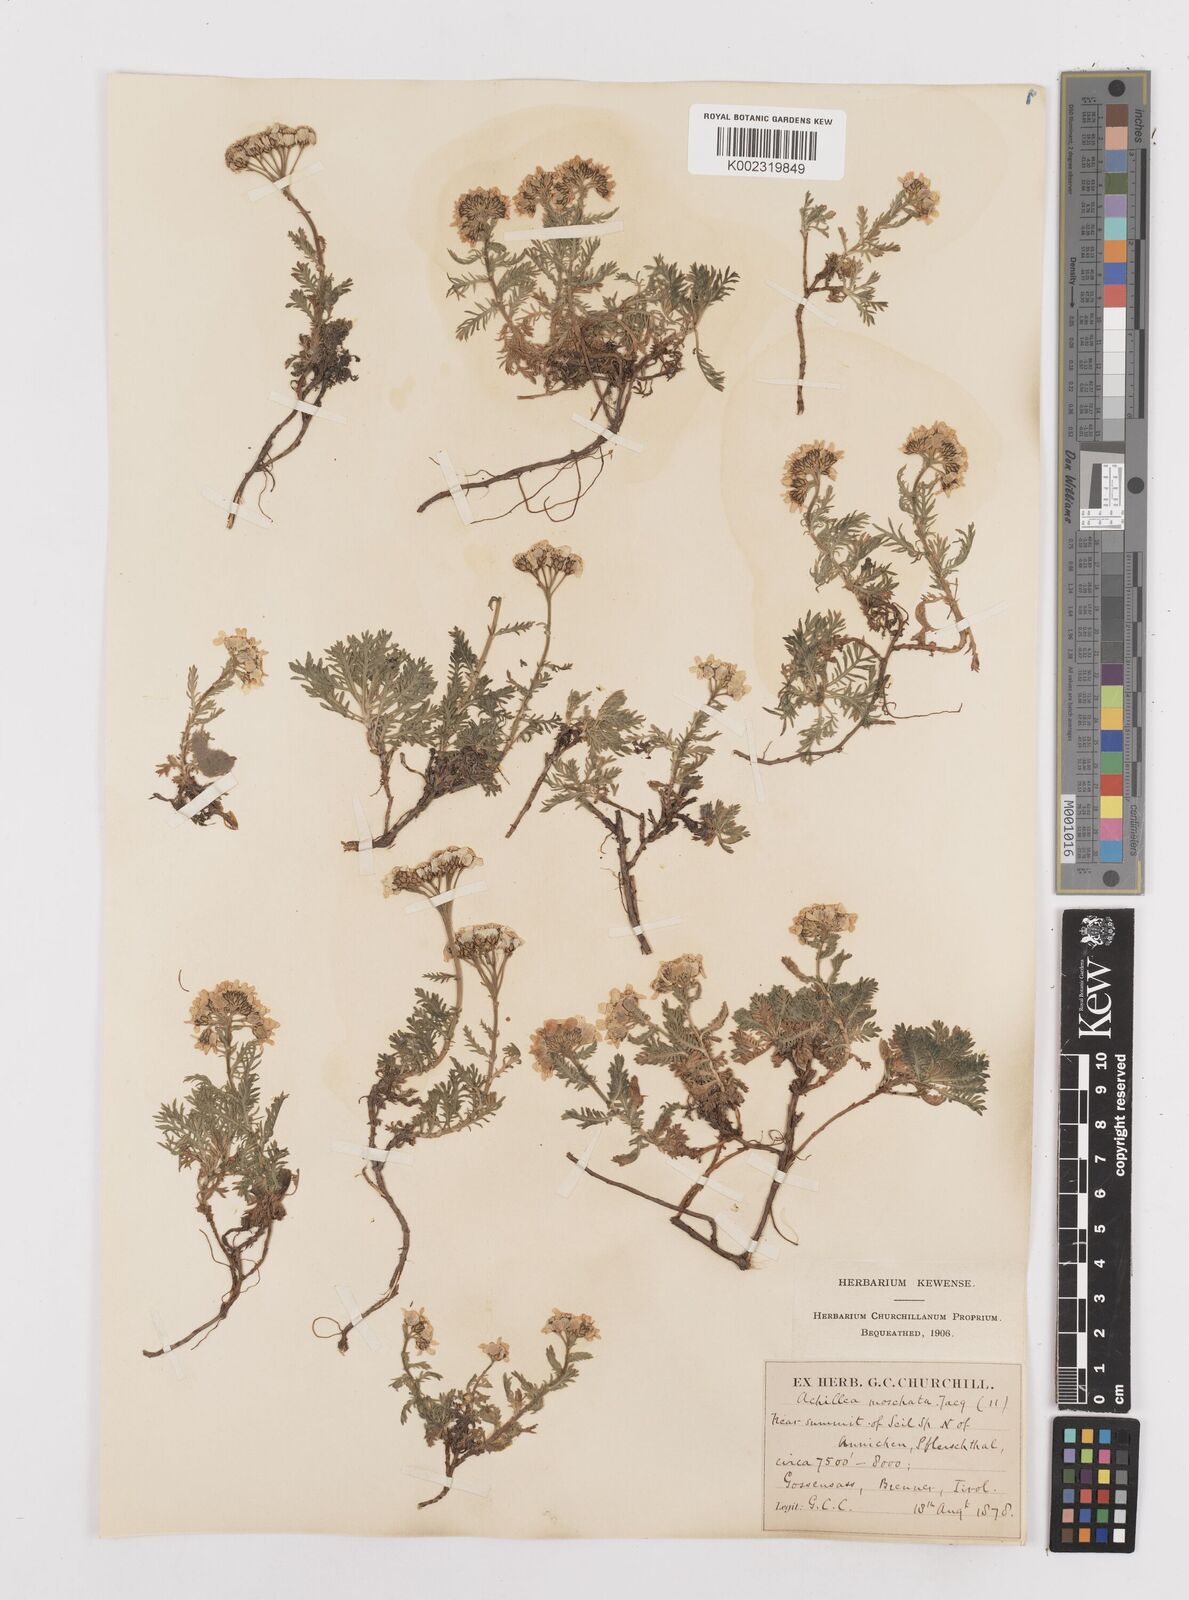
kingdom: Plantae
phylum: Tracheophyta
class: Magnoliopsida
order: Asterales
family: Asteraceae
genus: Achillea
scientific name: Achillea erba-rotta
